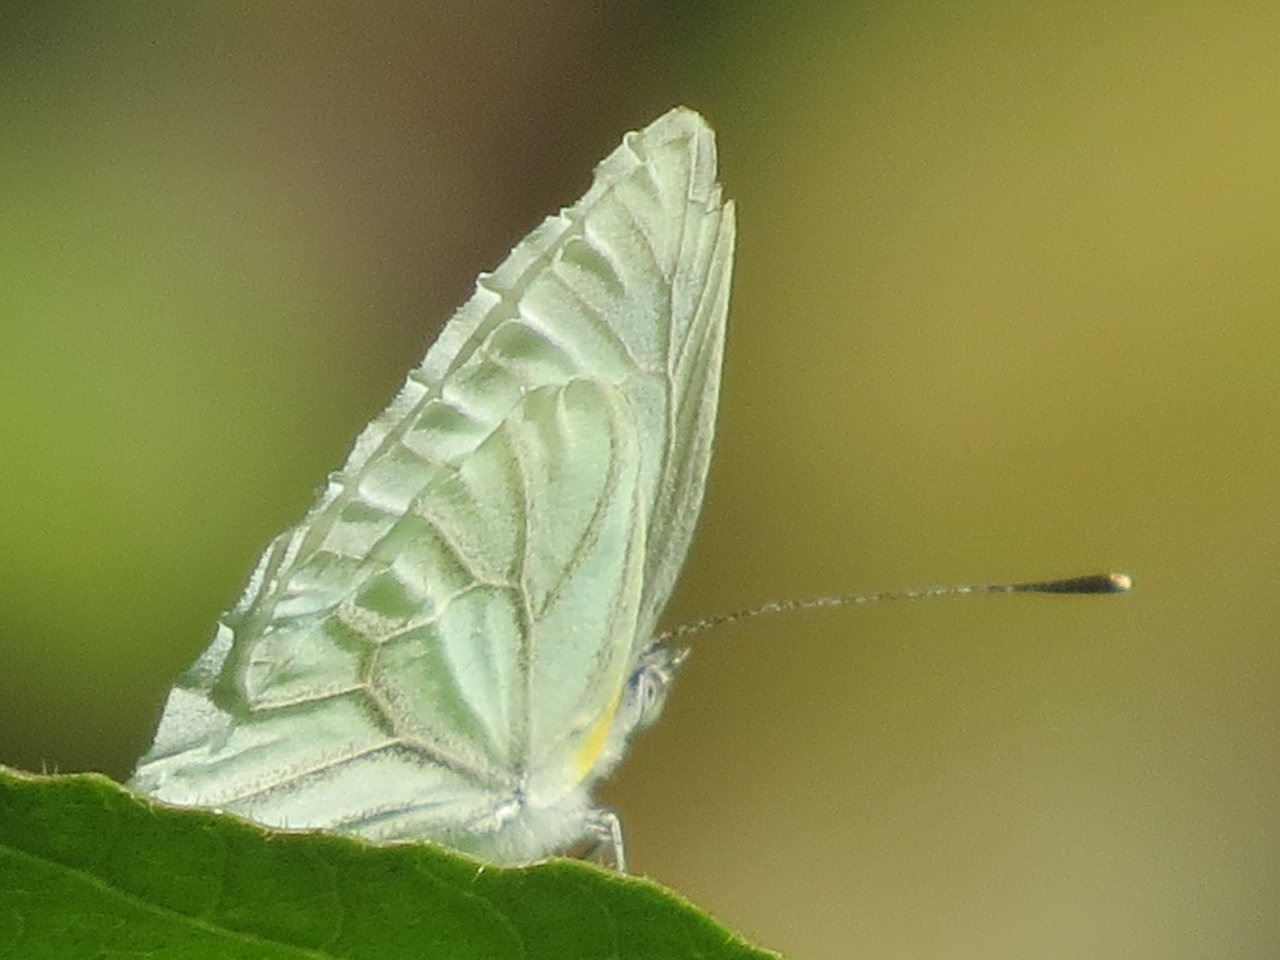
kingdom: Animalia
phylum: Arthropoda
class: Insecta
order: Lepidoptera
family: Pieridae
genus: Pieris
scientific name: Pieris oleracea
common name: Mustard White
